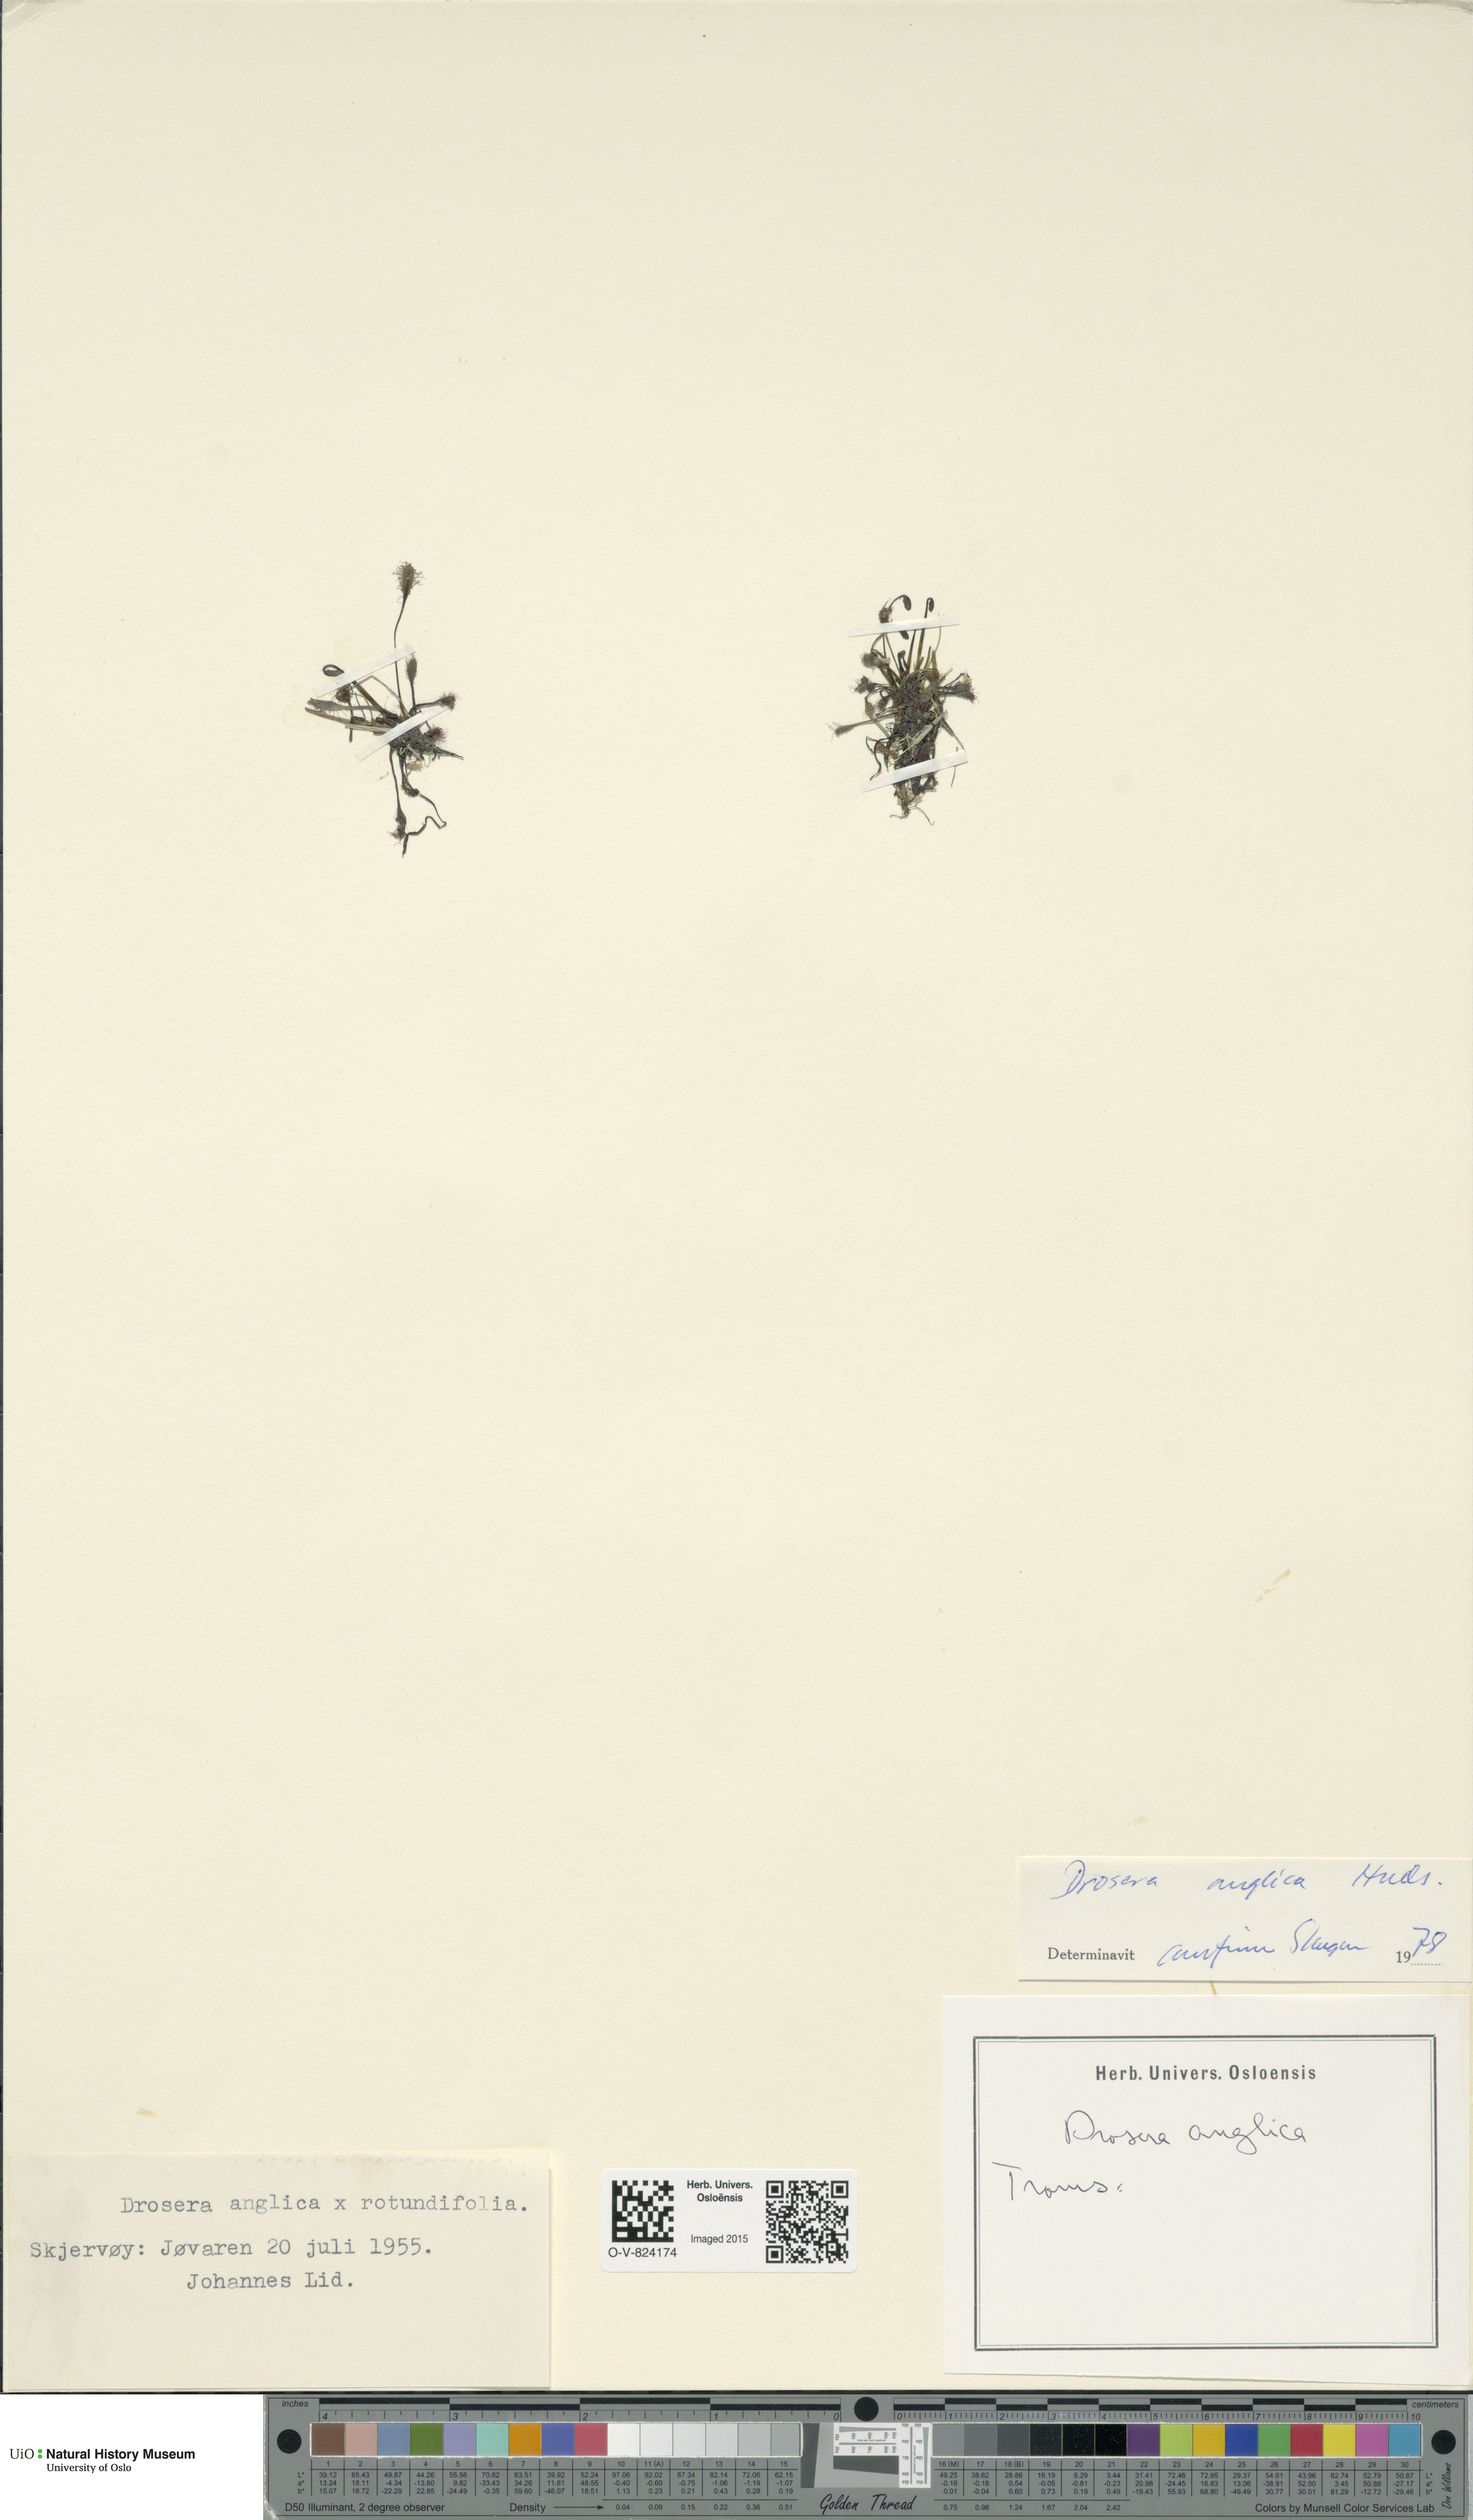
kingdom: Plantae
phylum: Tracheophyta
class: Magnoliopsida
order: Caryophyllales
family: Droseraceae
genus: Drosera
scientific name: Drosera anglica
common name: Great sundew
